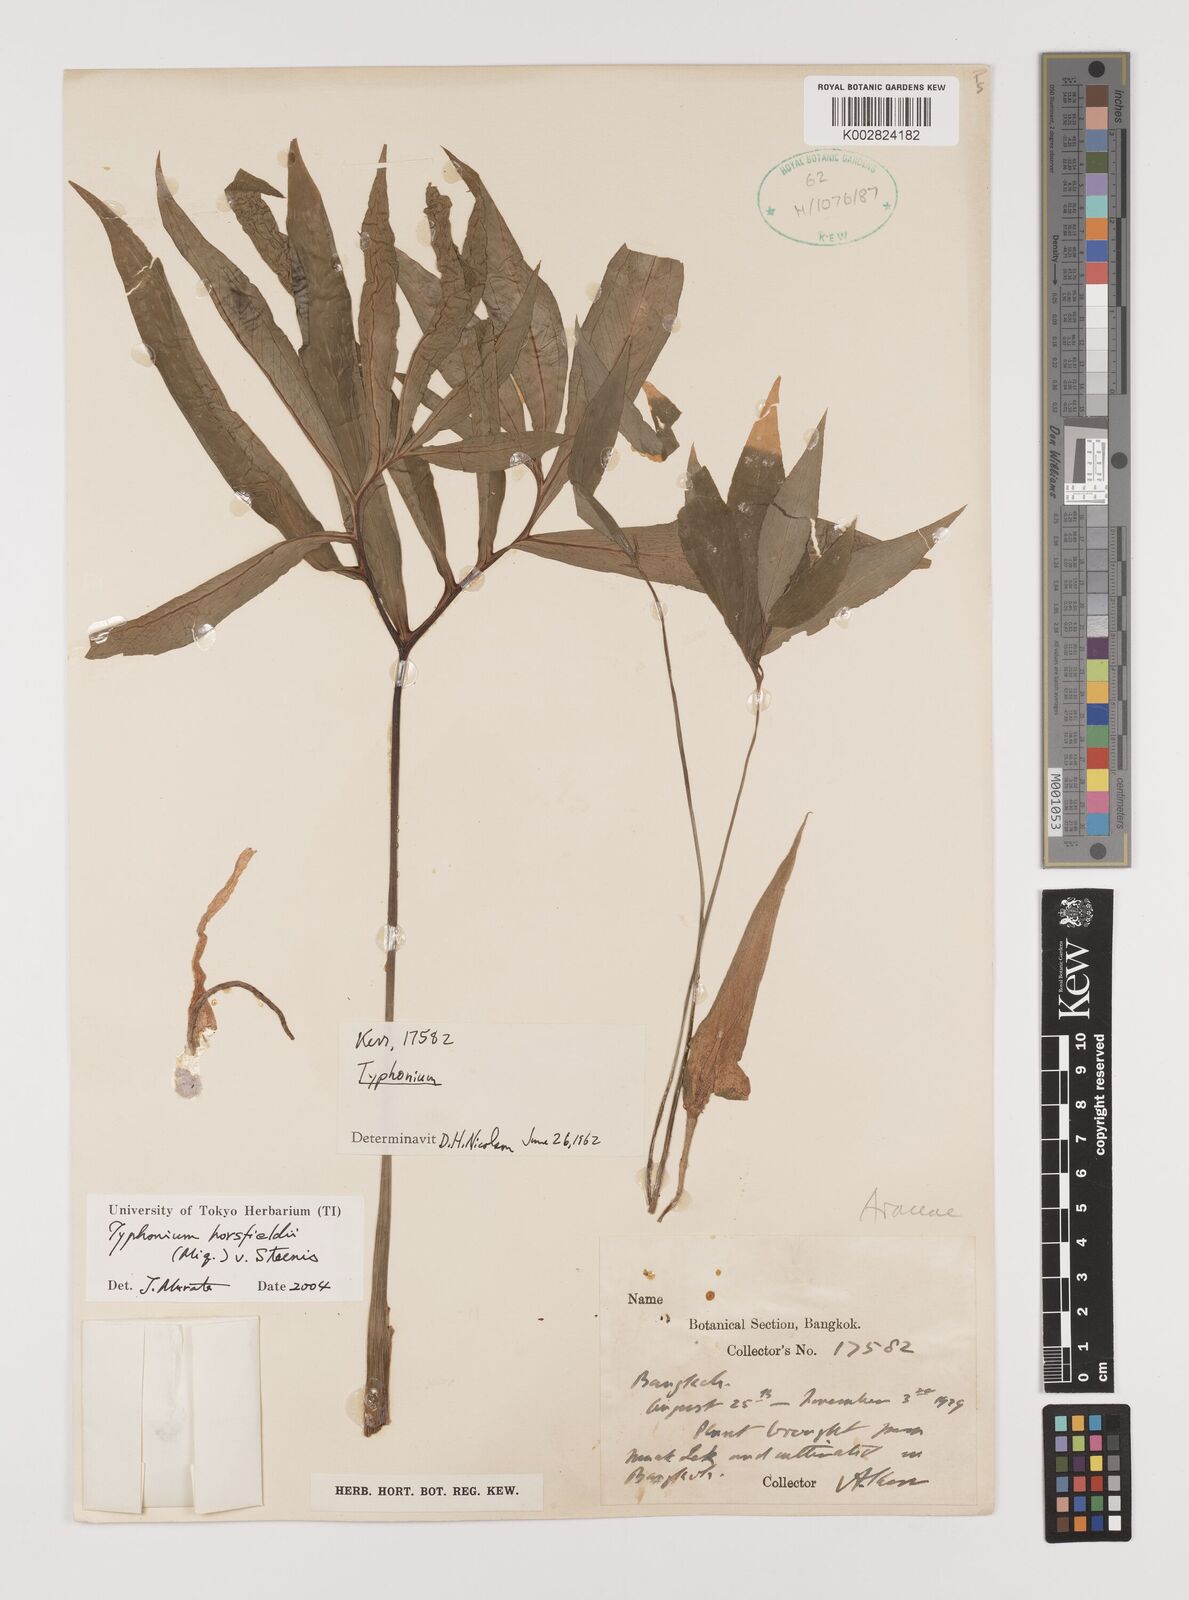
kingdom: Plantae
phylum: Tracheophyta
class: Liliopsida
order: Alismatales
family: Araceae
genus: Sauromatum
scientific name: Sauromatum horsfieldii
